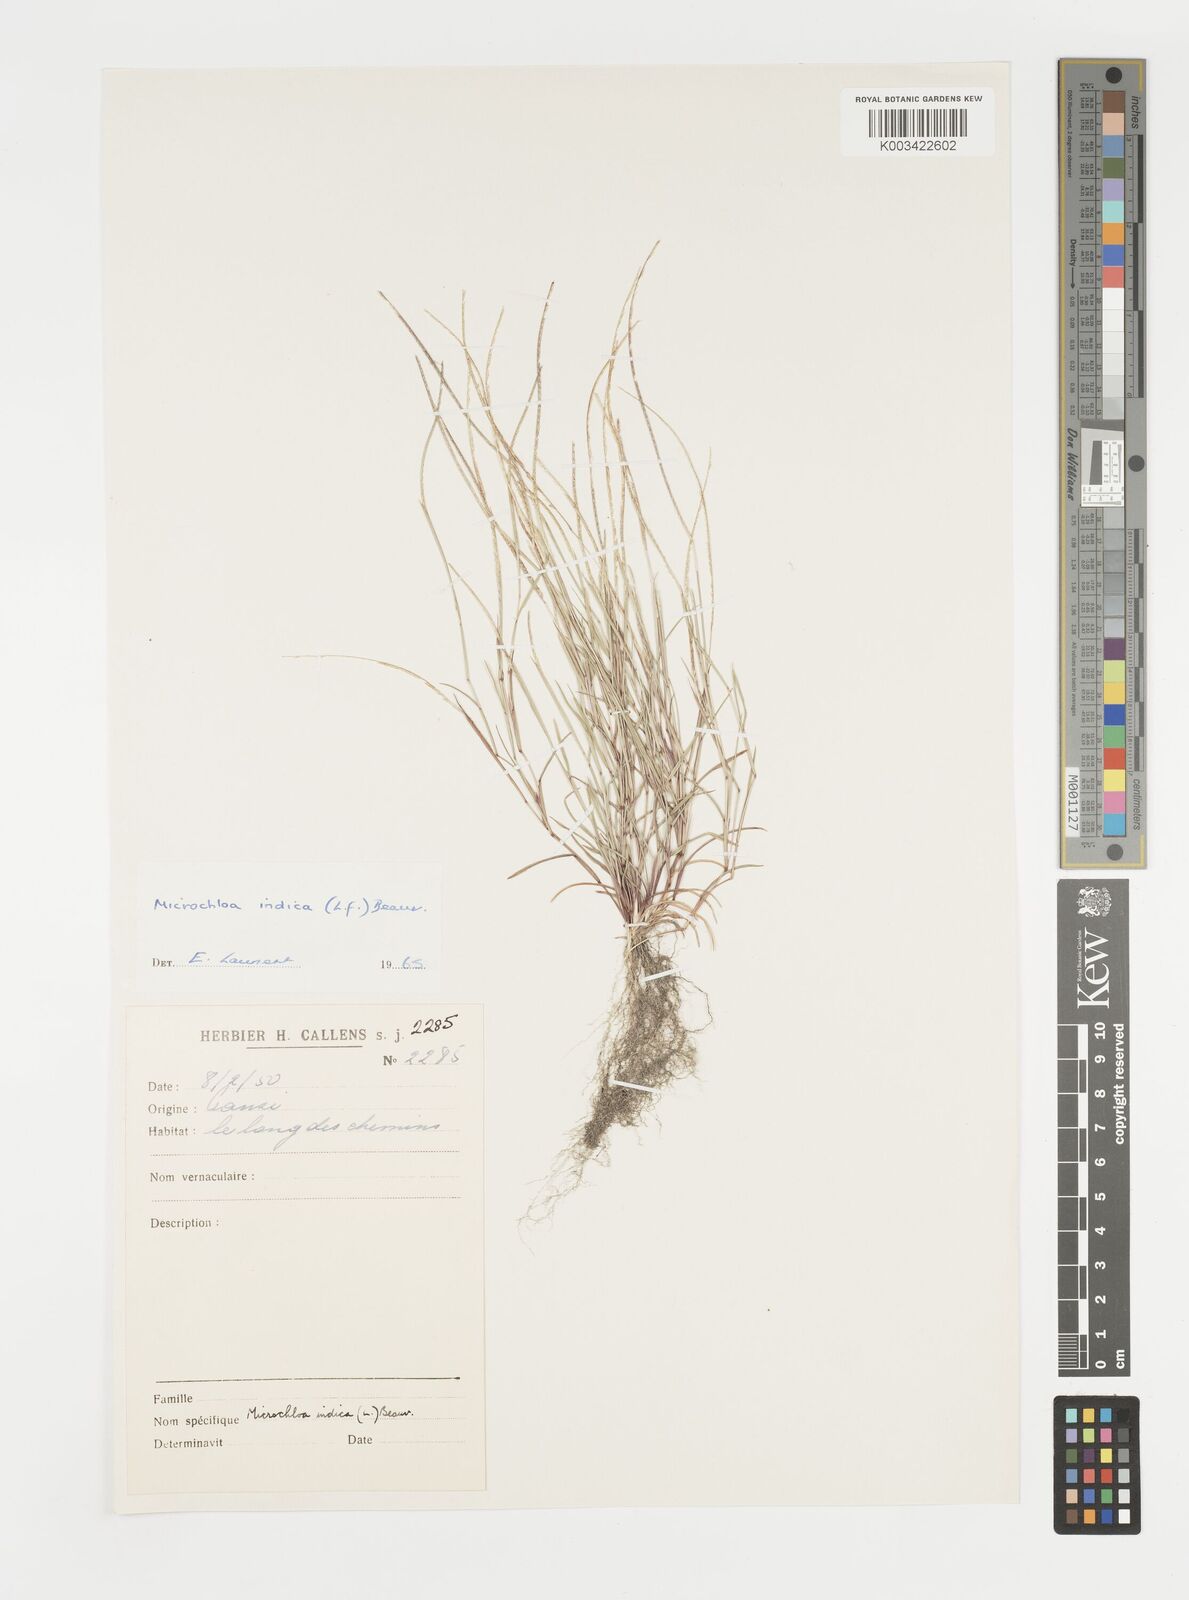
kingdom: Plantae
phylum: Tracheophyta
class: Liliopsida
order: Poales
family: Poaceae
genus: Microchloa
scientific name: Microchloa indica
